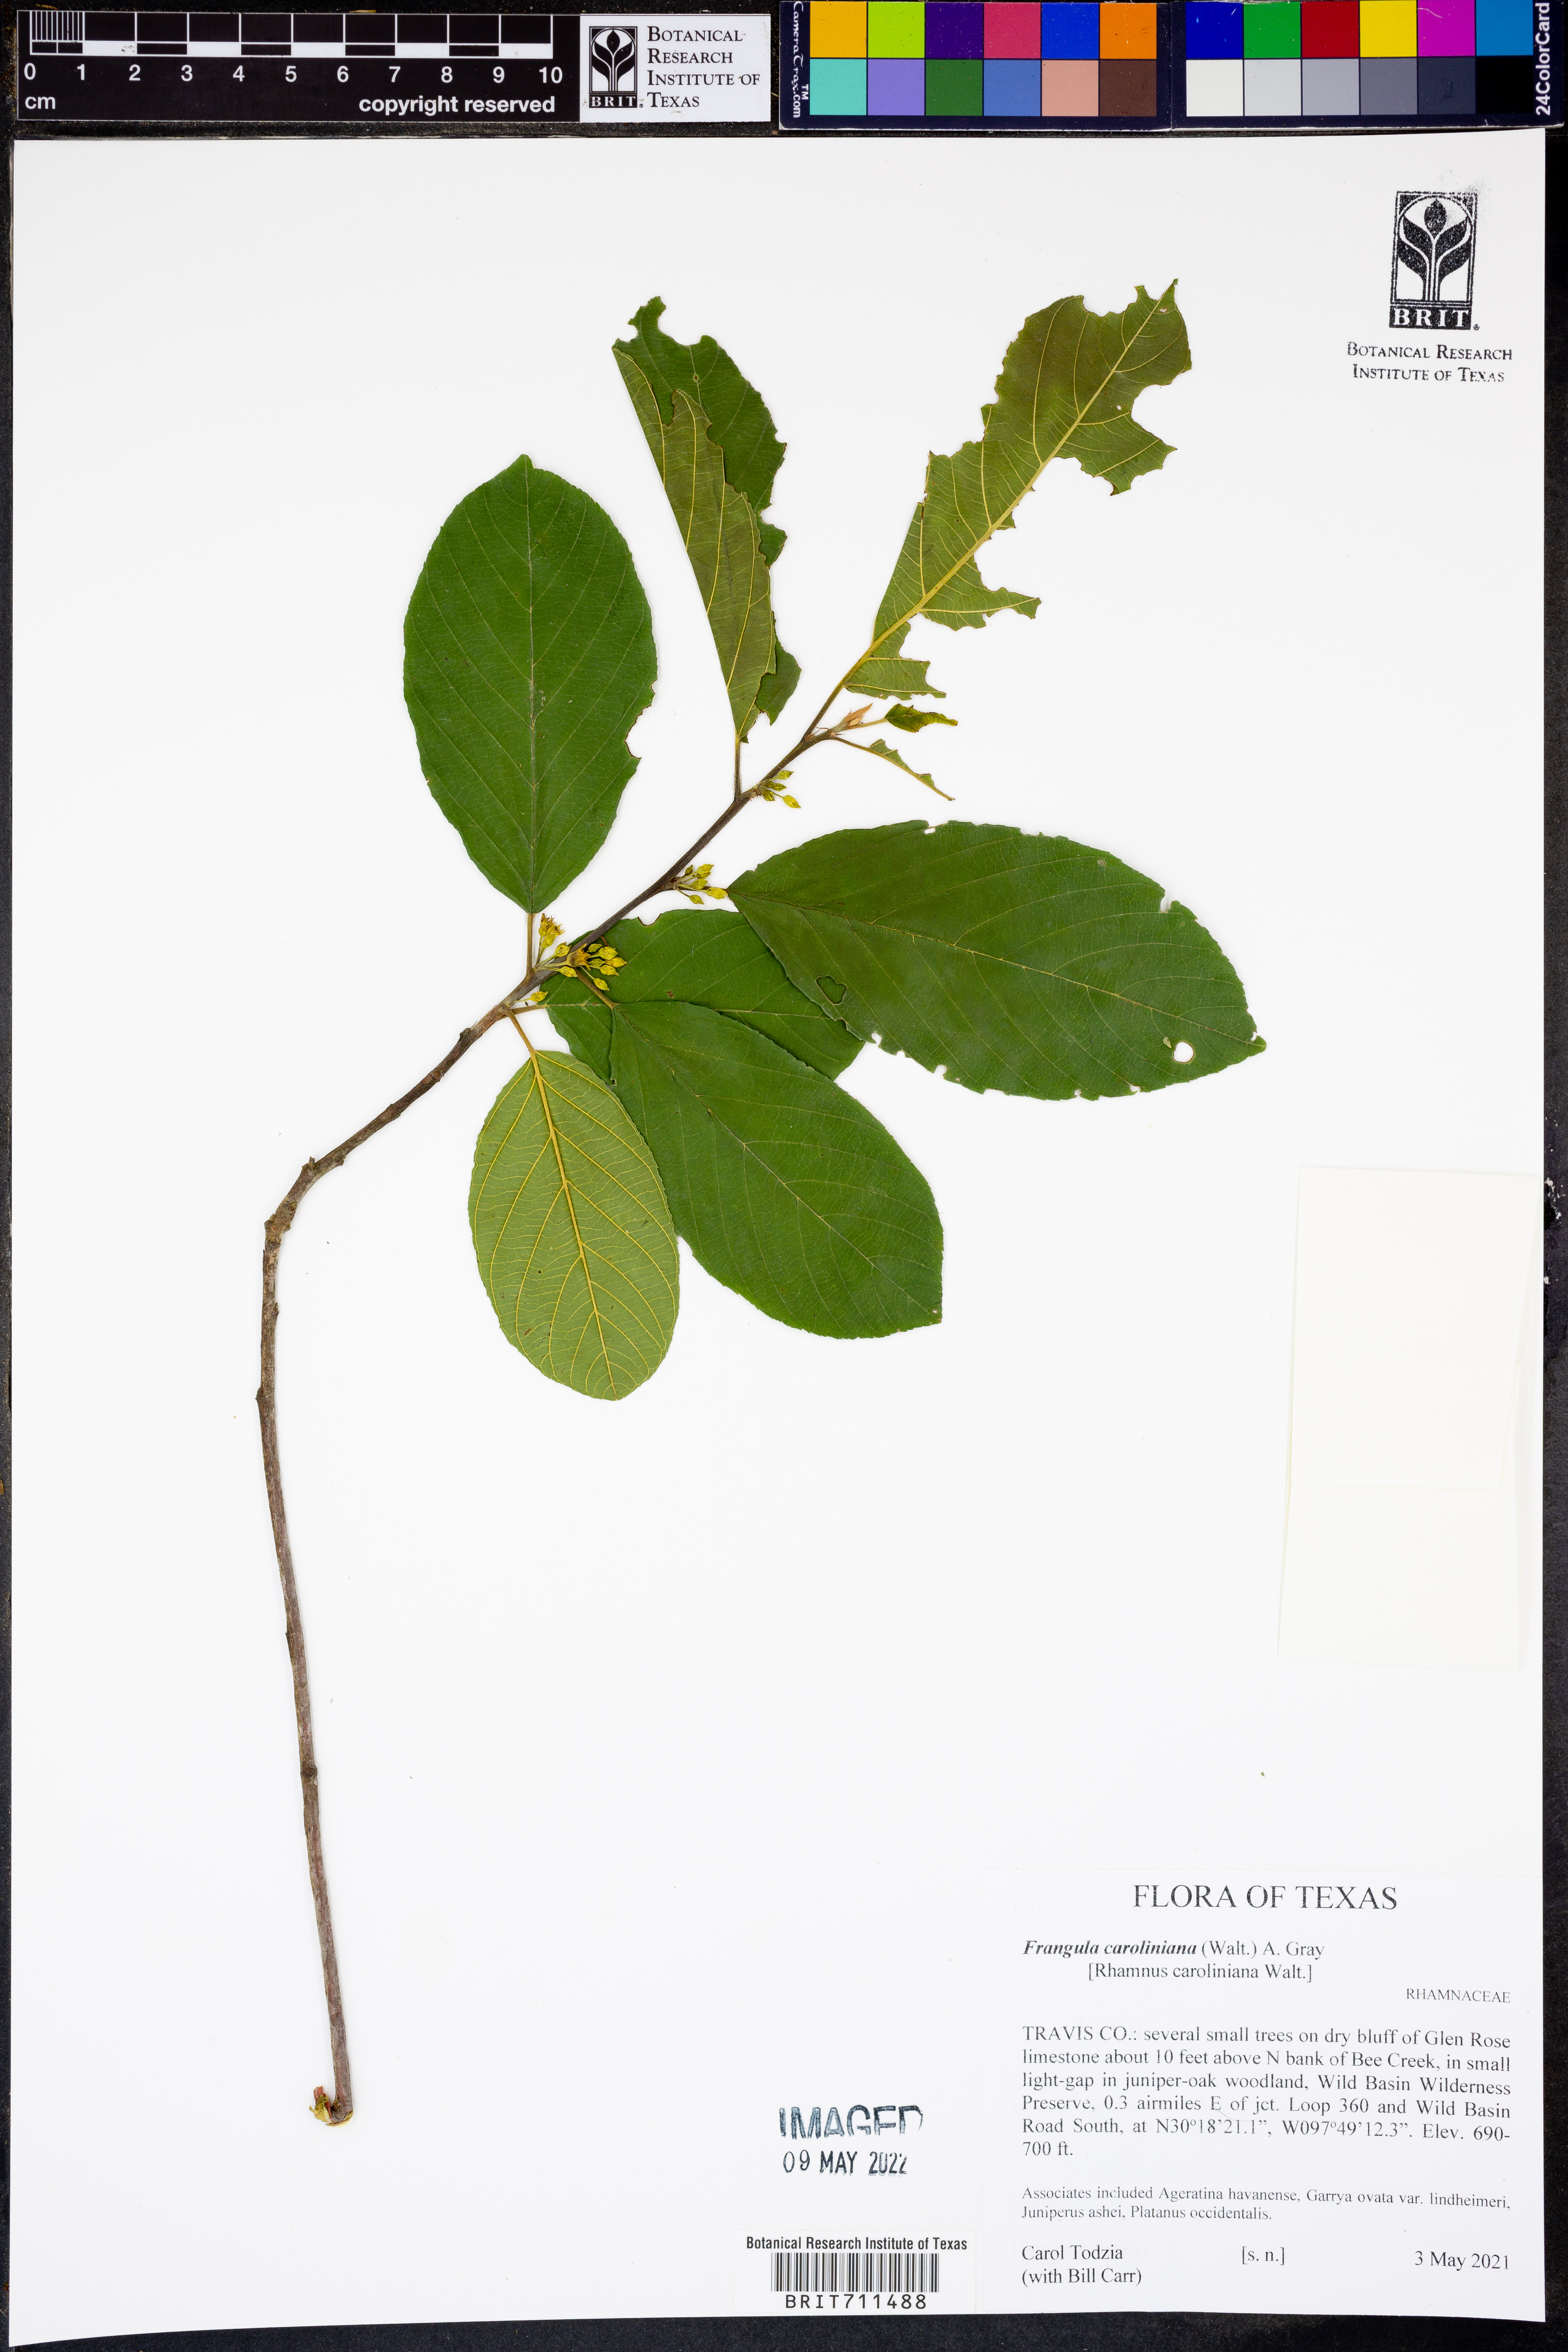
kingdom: Plantae
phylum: Tracheophyta
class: Magnoliopsida
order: Rosales
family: Rhamnaceae
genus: Frangula
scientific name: Frangula caroliniana
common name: Carolina buckthorn
